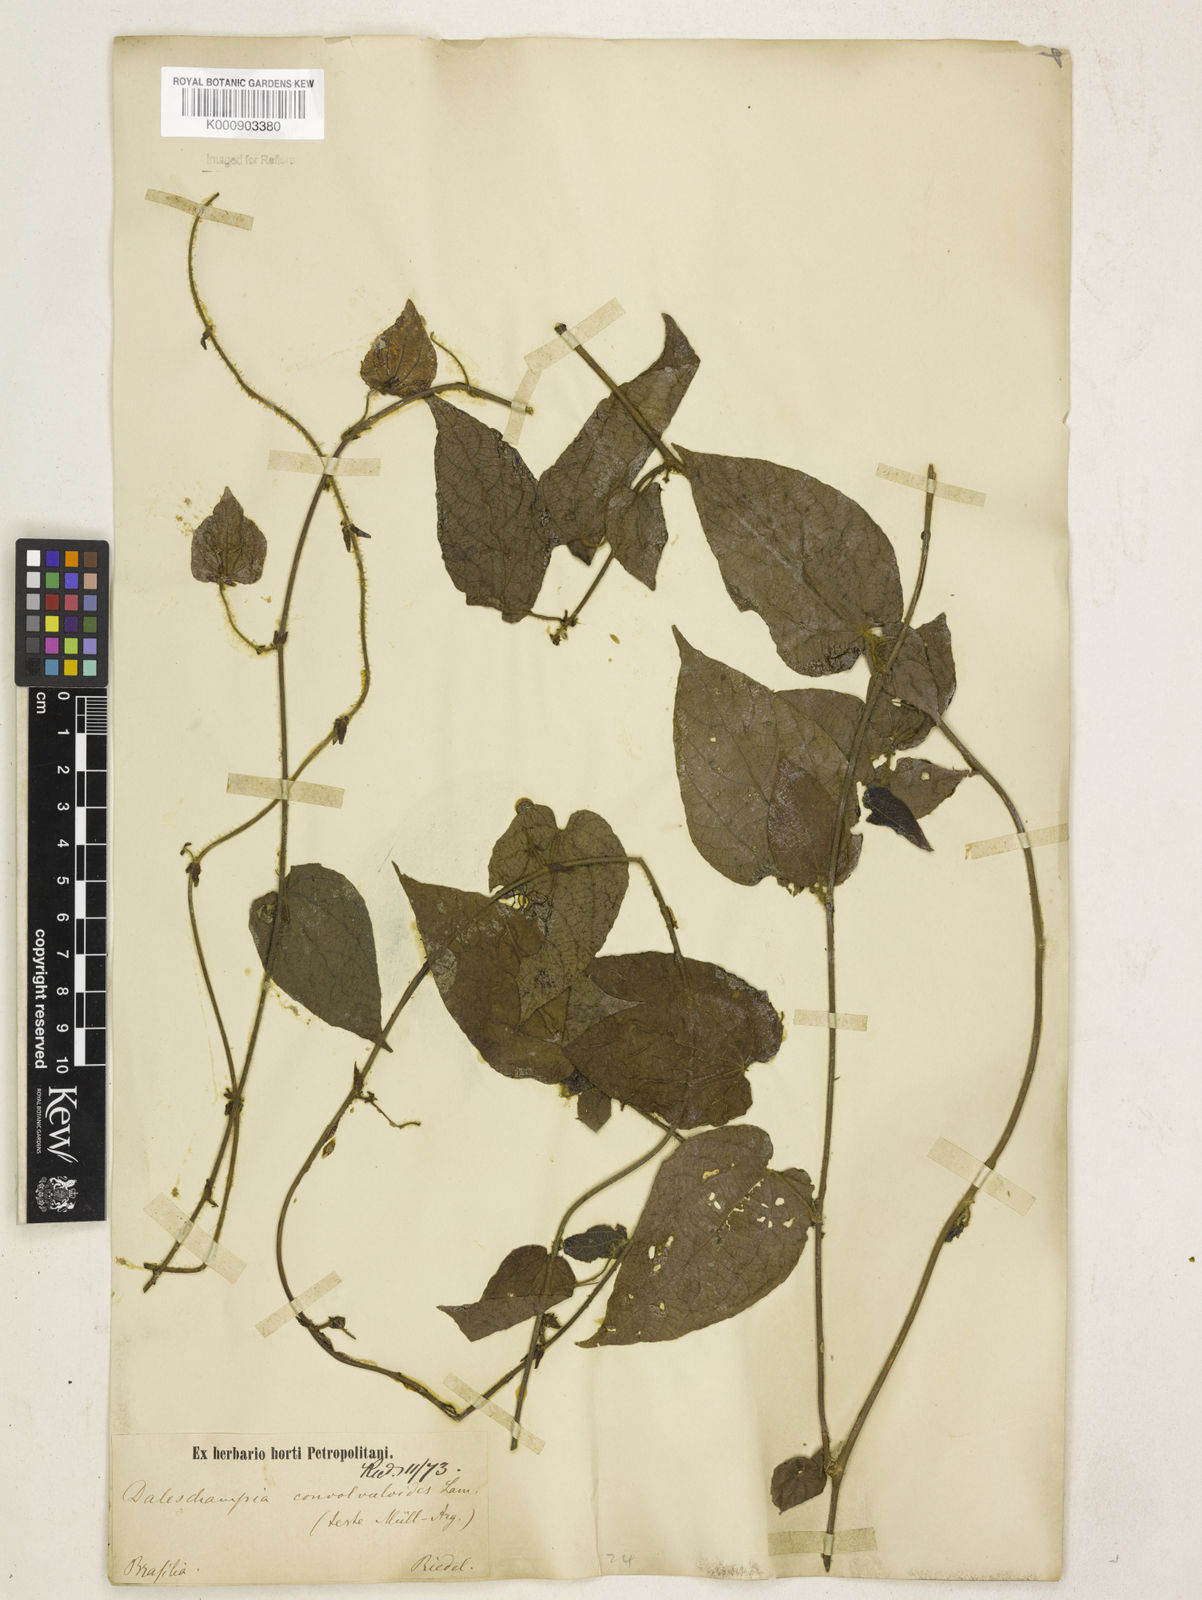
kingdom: Plantae
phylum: Tracheophyta
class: Magnoliopsida
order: Malpighiales
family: Euphorbiaceae
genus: Dalechampia
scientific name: Dalechampia
